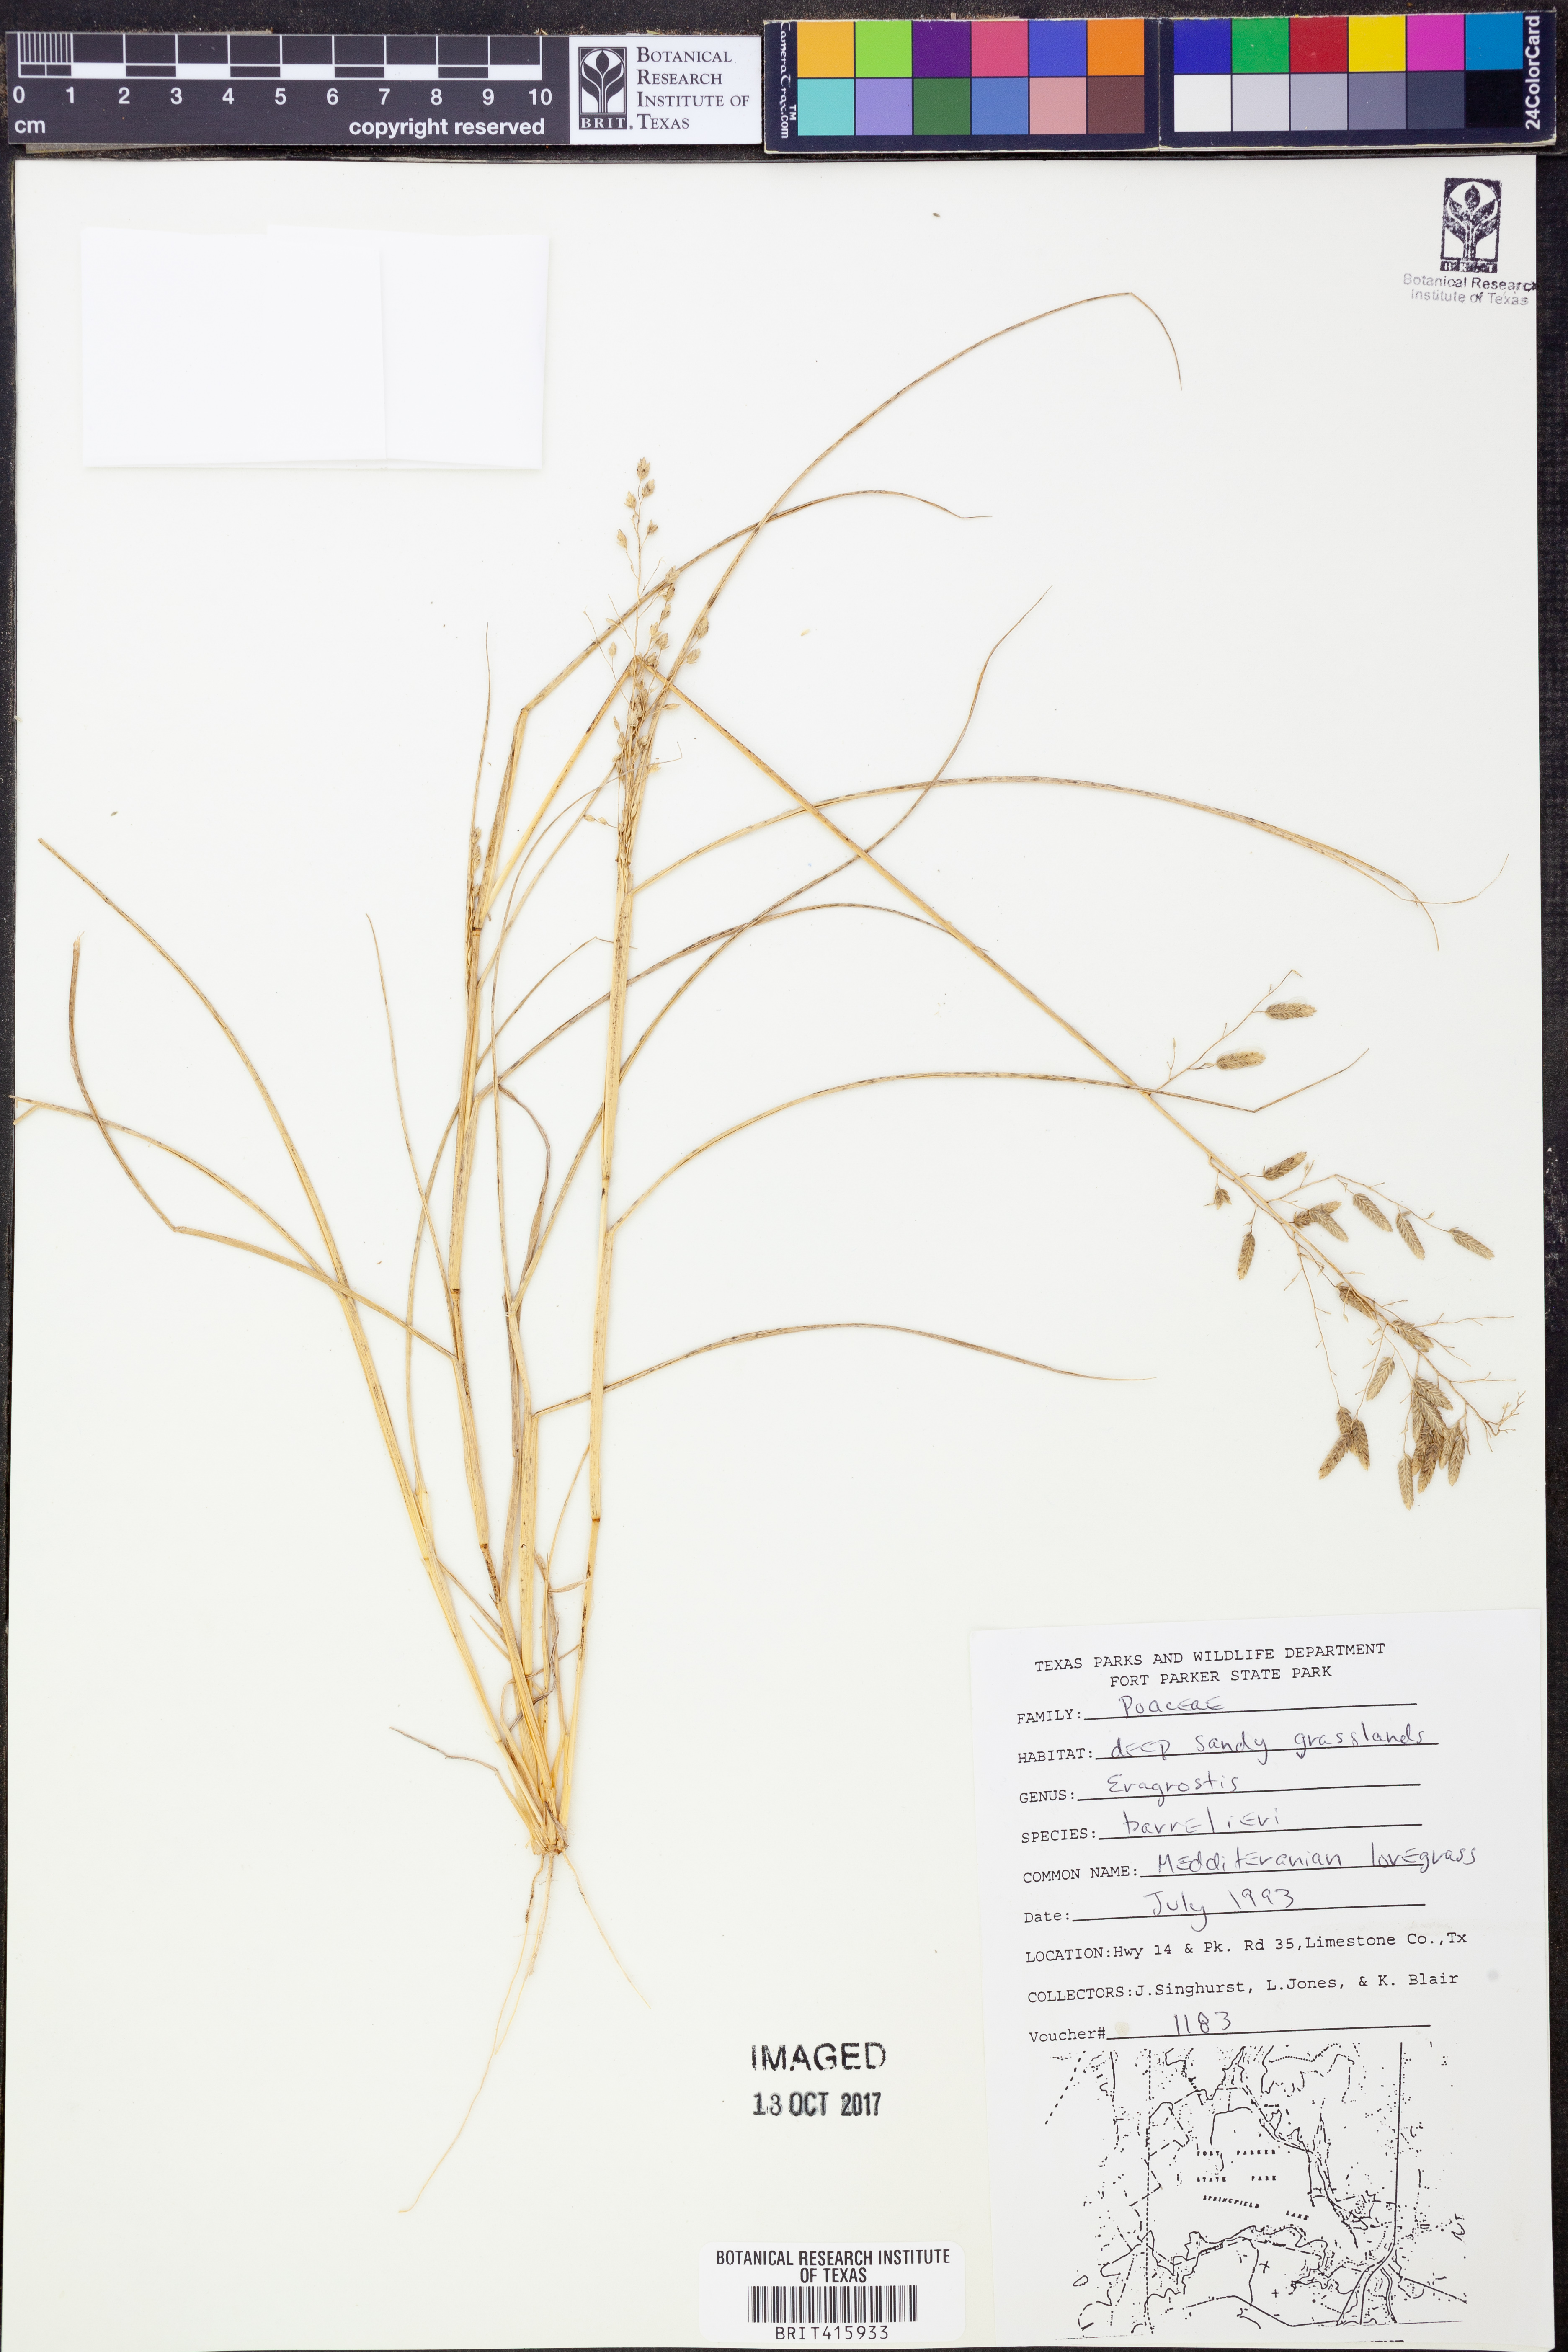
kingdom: Plantae
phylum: Tracheophyta
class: Liliopsida
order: Poales
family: Poaceae
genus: Eragrostis
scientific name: Eragrostis barrelieri
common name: Mediterranean lovegrass
